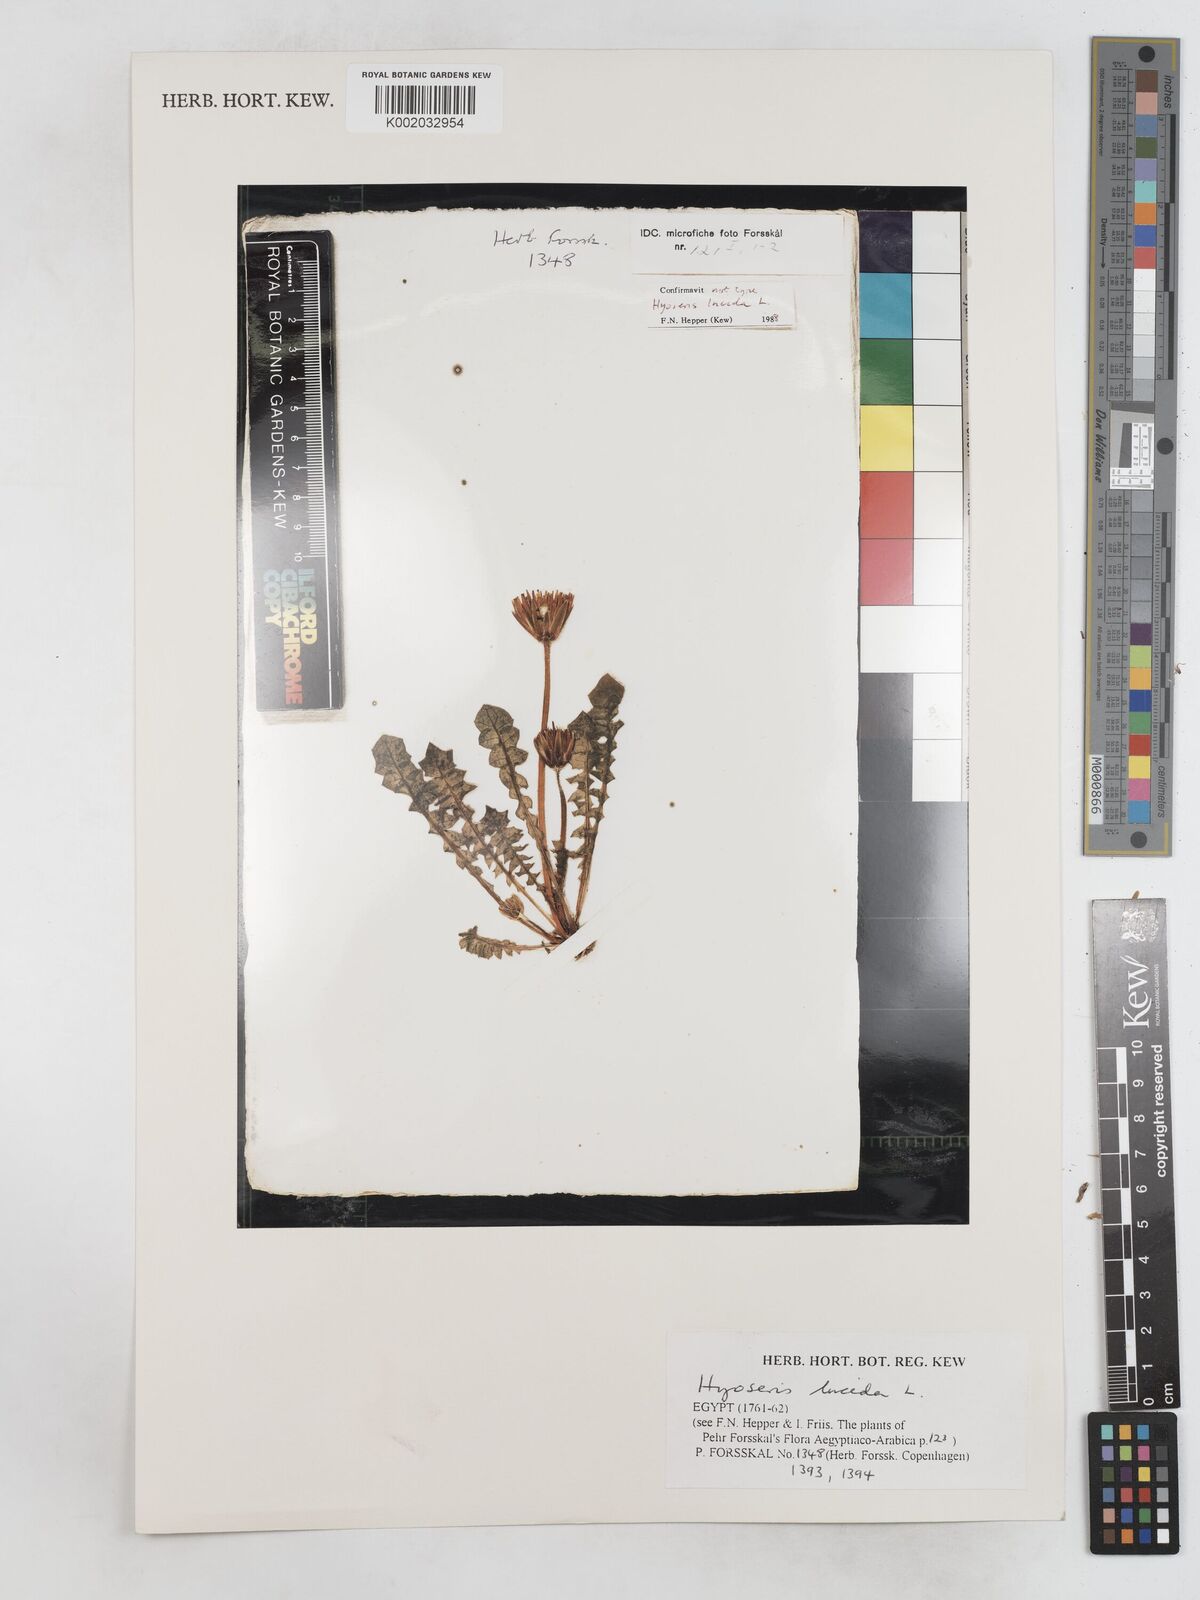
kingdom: Plantae
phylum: Tracheophyta
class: Magnoliopsida
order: Asterales
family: Asteraceae
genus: Hyoseris
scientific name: Hyoseris lucida
